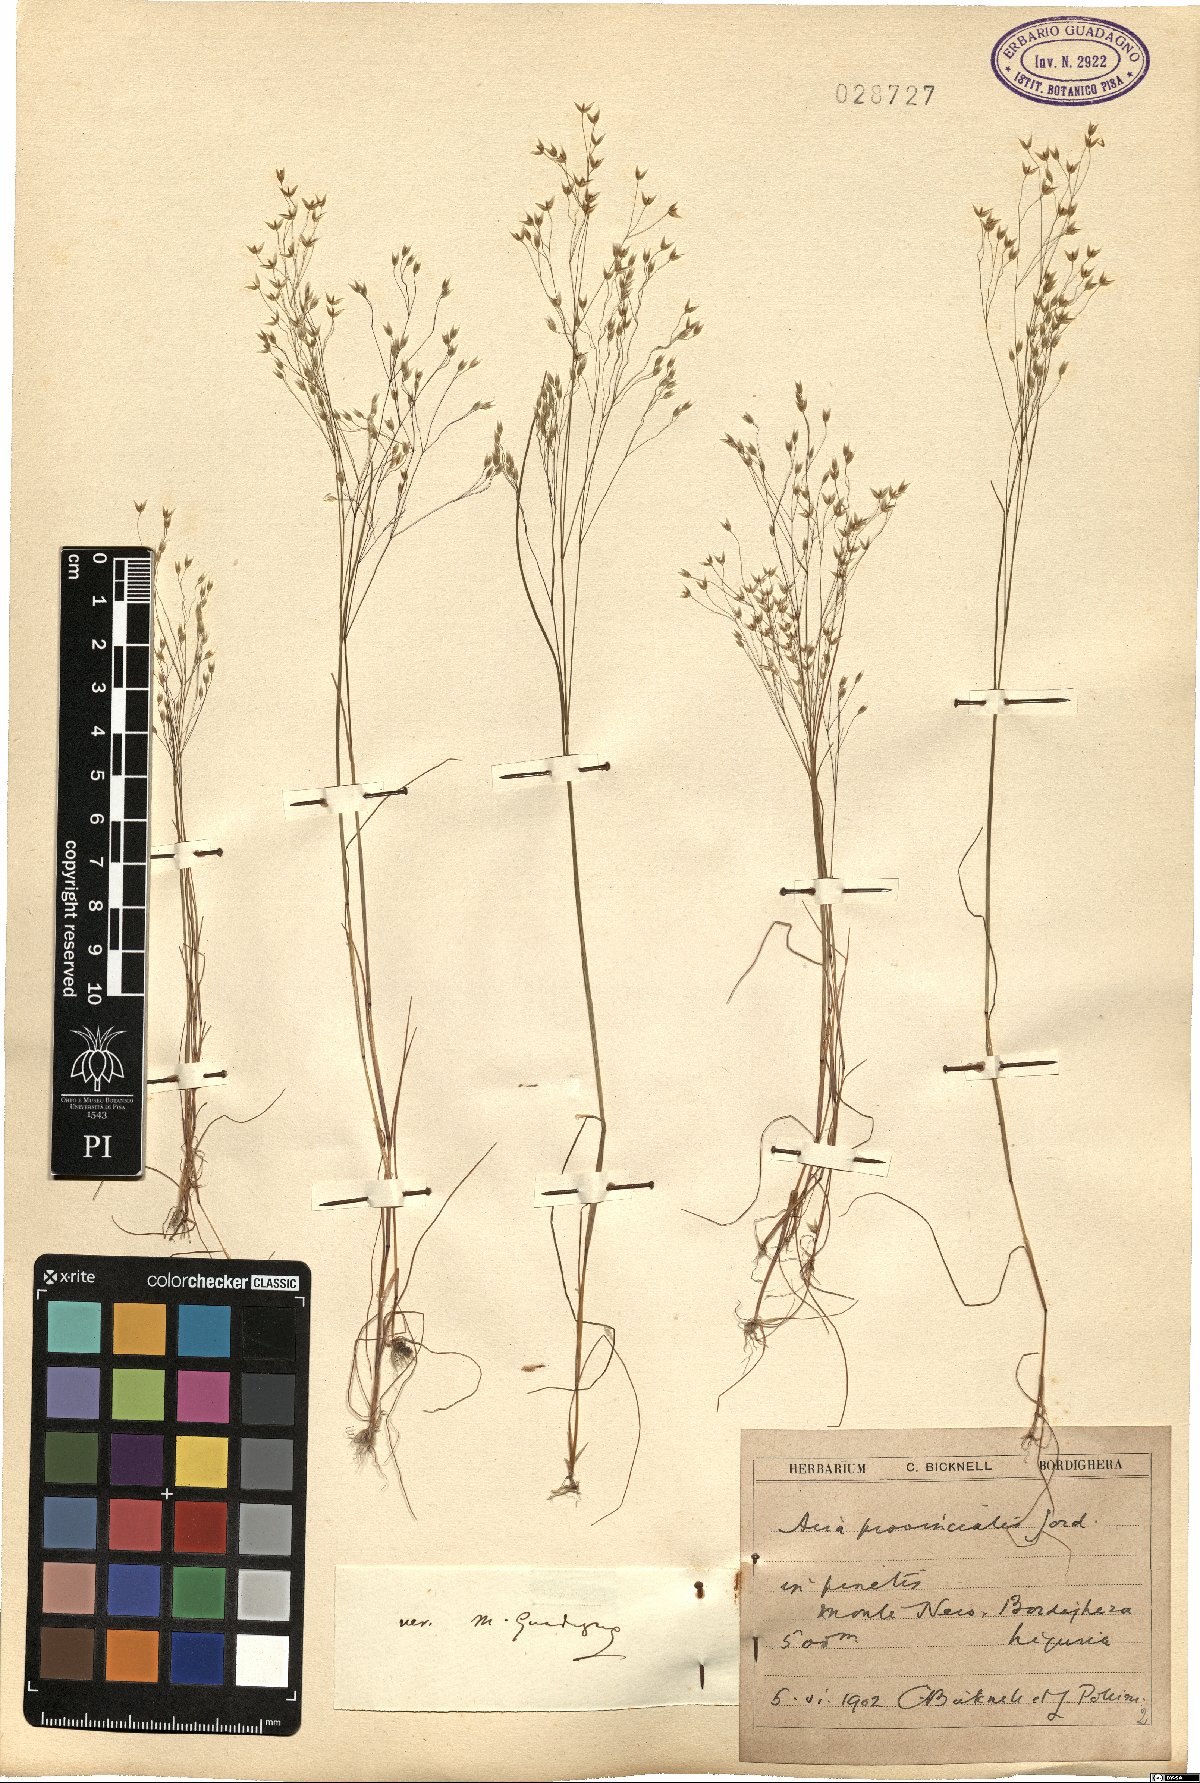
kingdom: Plantae
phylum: Tracheophyta
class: Liliopsida
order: Poales
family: Poaceae
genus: Aira
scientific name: Aira provincialis
